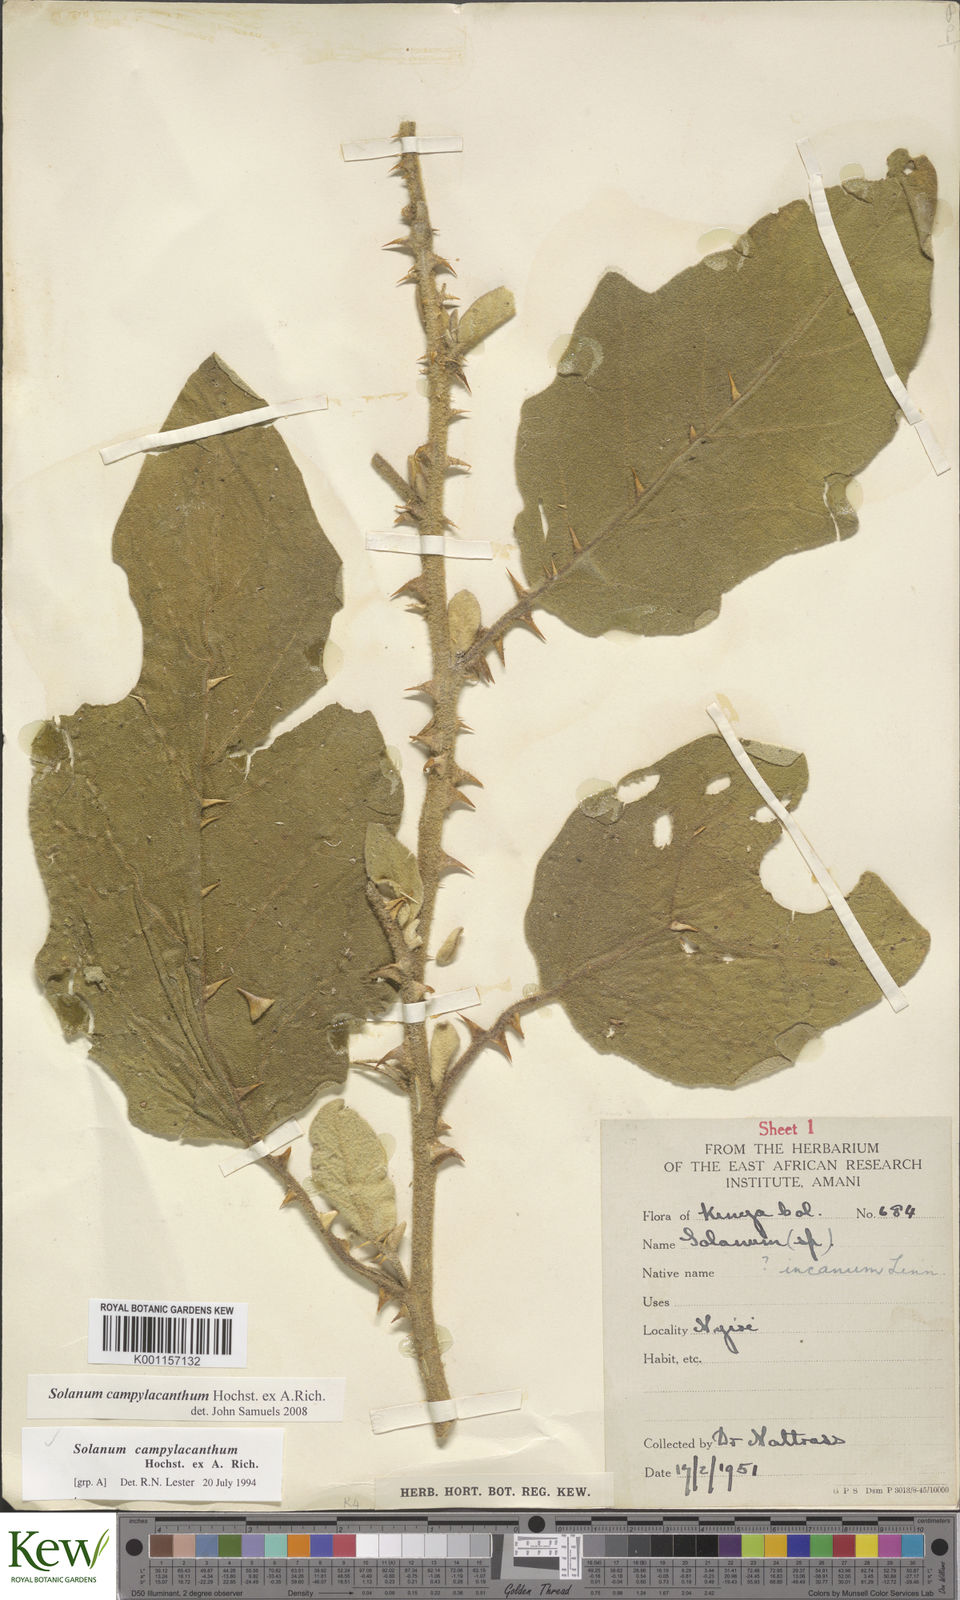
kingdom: Plantae
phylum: Tracheophyta
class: Magnoliopsida
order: Solanales
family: Solanaceae
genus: Solanum
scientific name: Solanum campylacanthum
